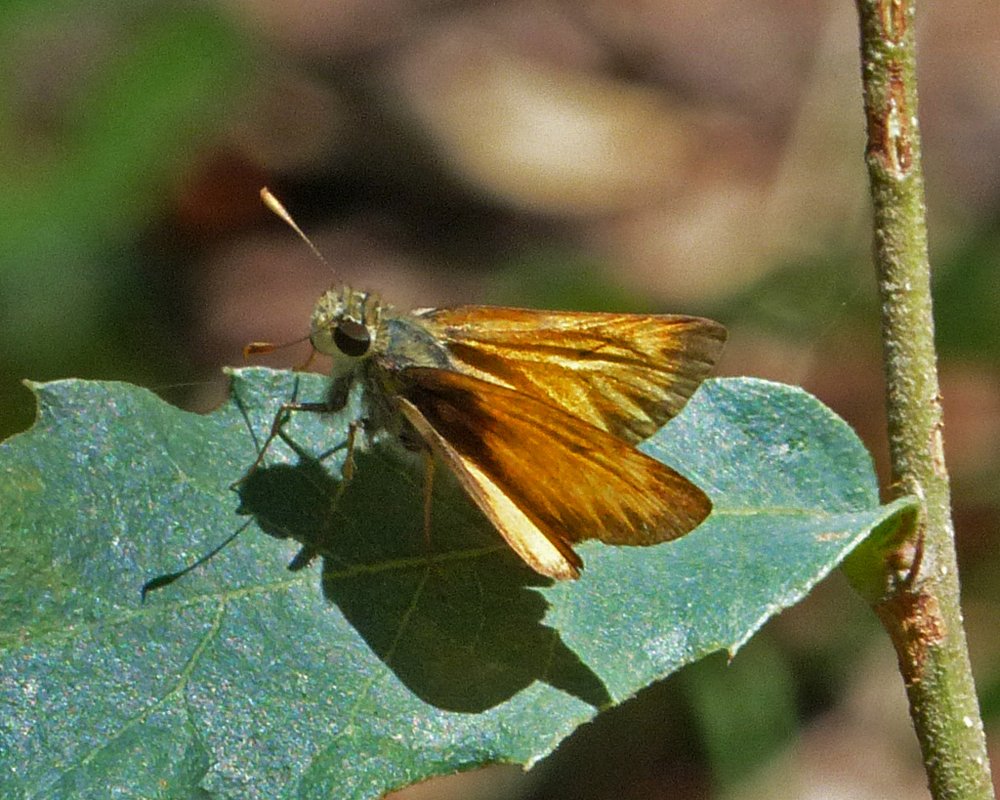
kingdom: Animalia
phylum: Arthropoda
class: Insecta
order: Lepidoptera
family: Hesperiidae
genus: Lon
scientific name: Lon taxiles
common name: Taxiles Skipper
